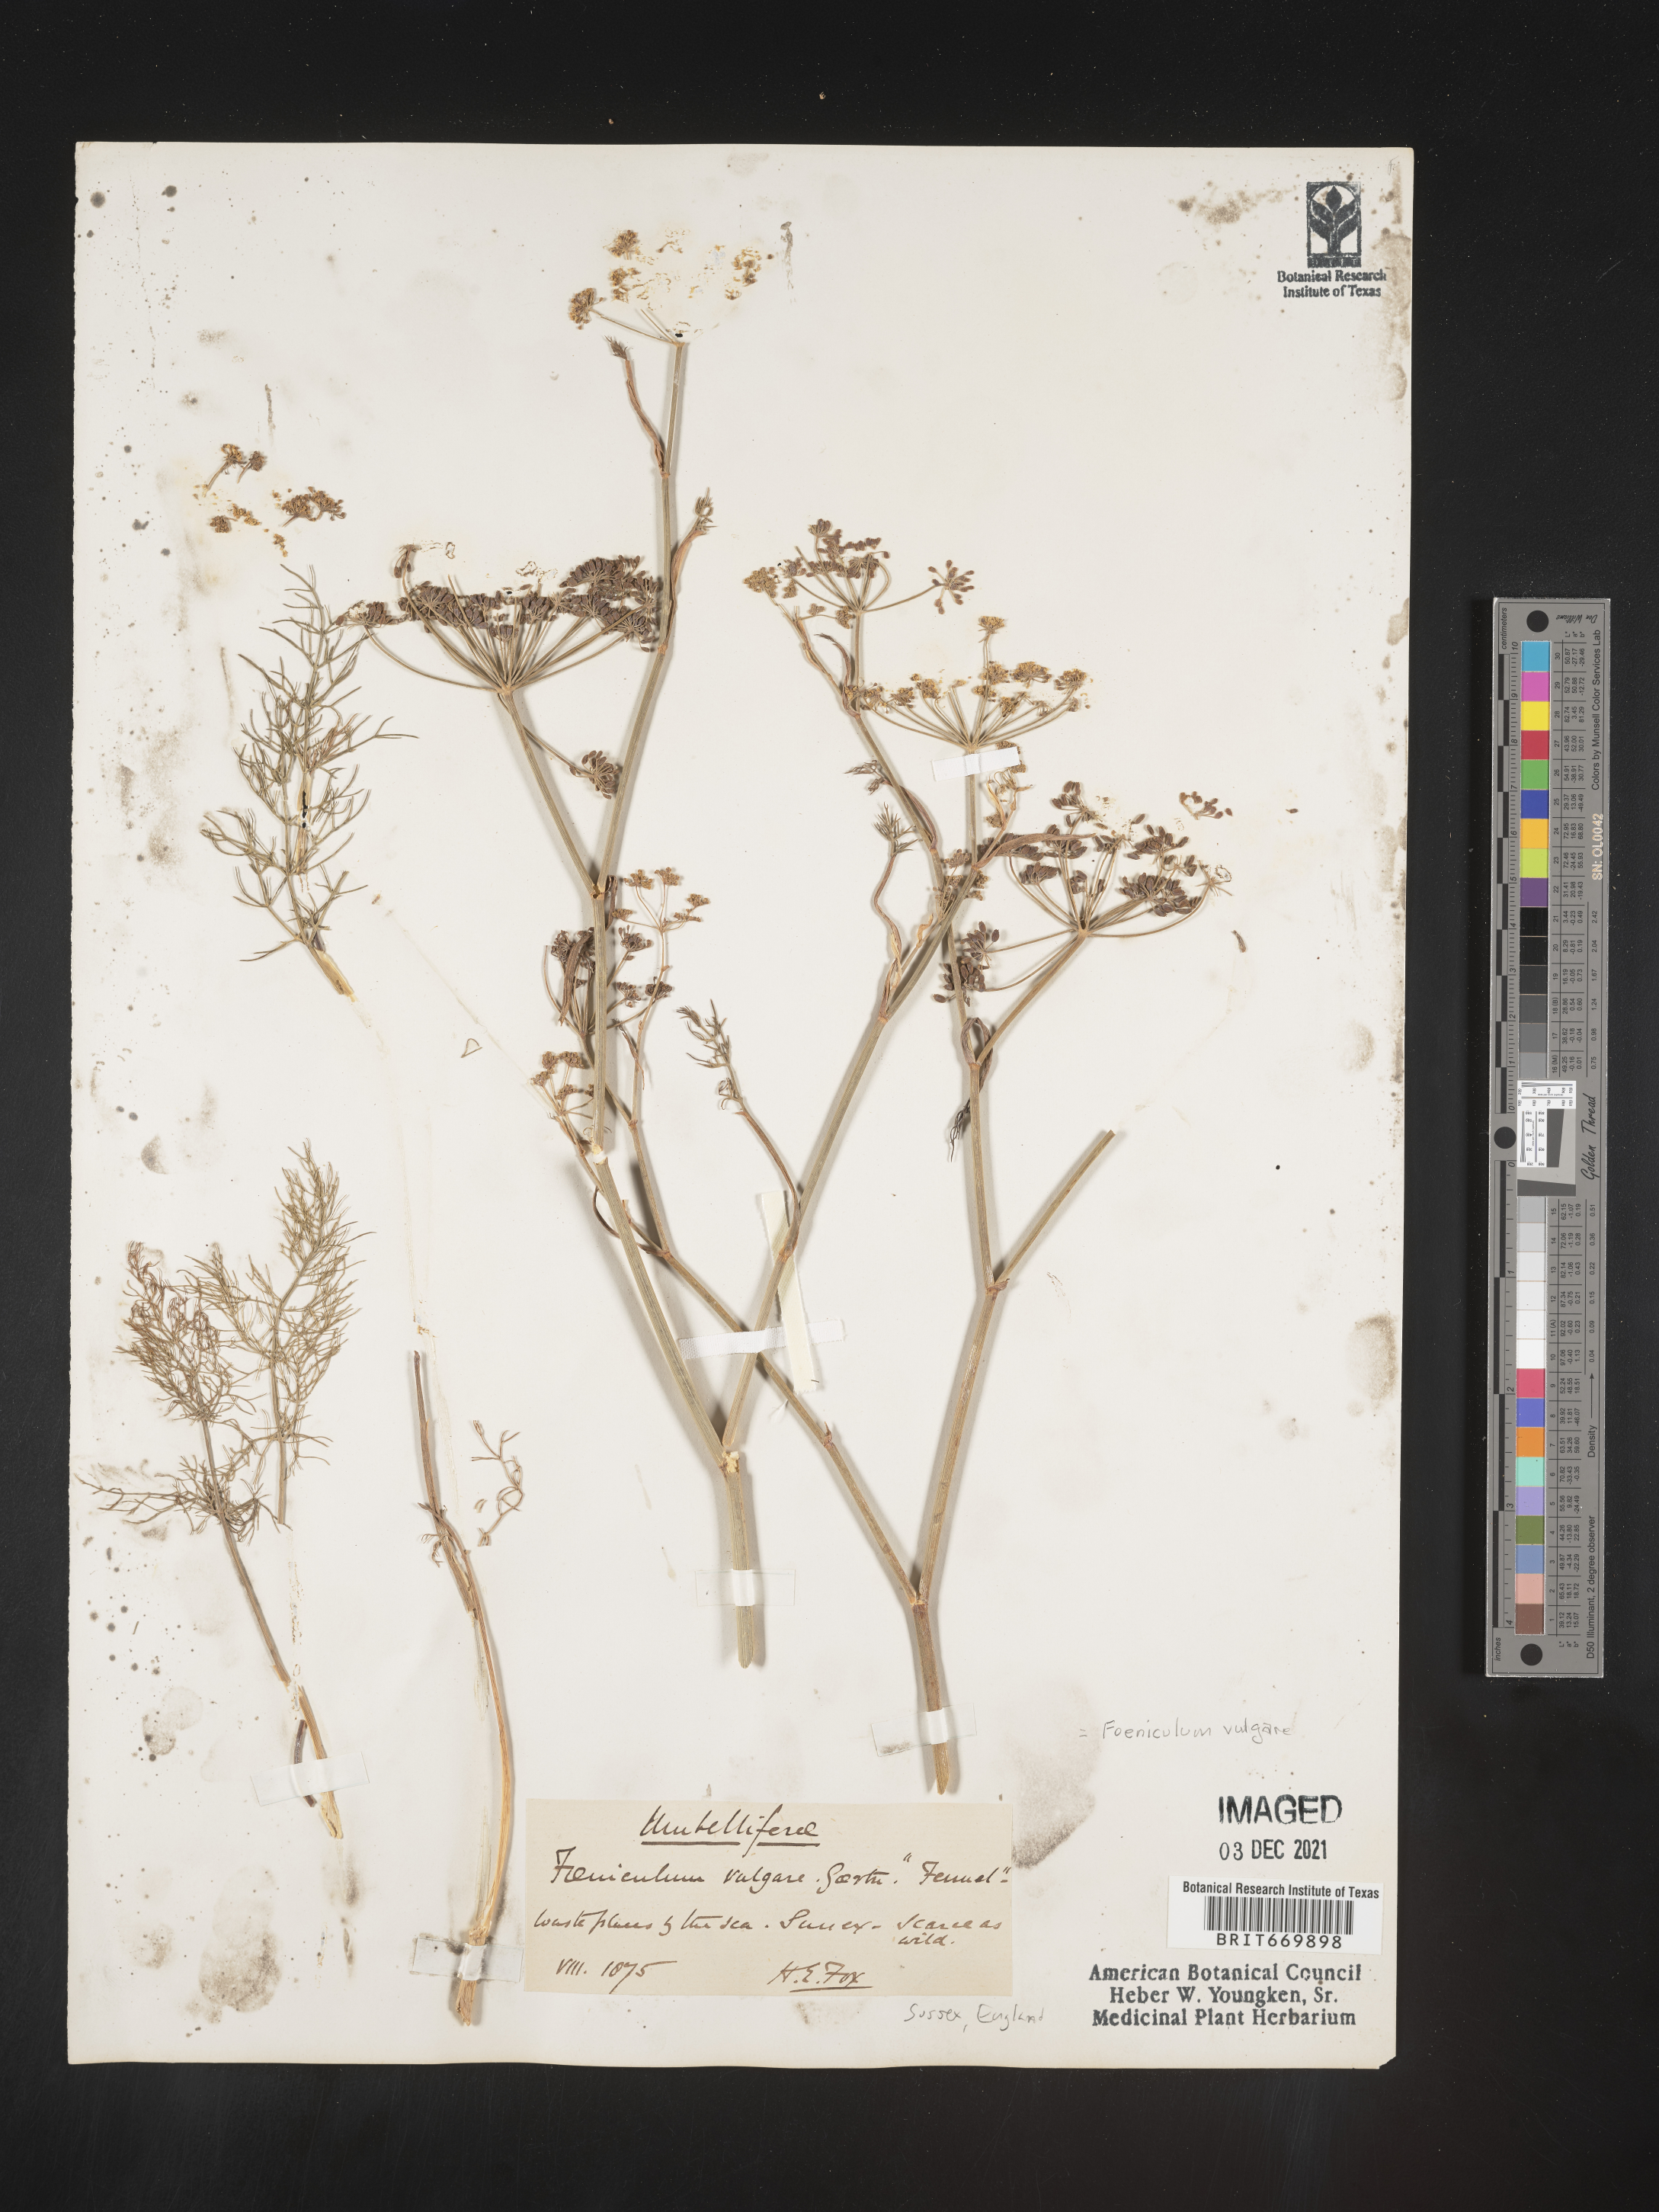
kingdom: Plantae
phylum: Tracheophyta
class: Magnoliopsida
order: Apiales
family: Apiaceae
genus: Foeniculum
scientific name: Foeniculum
